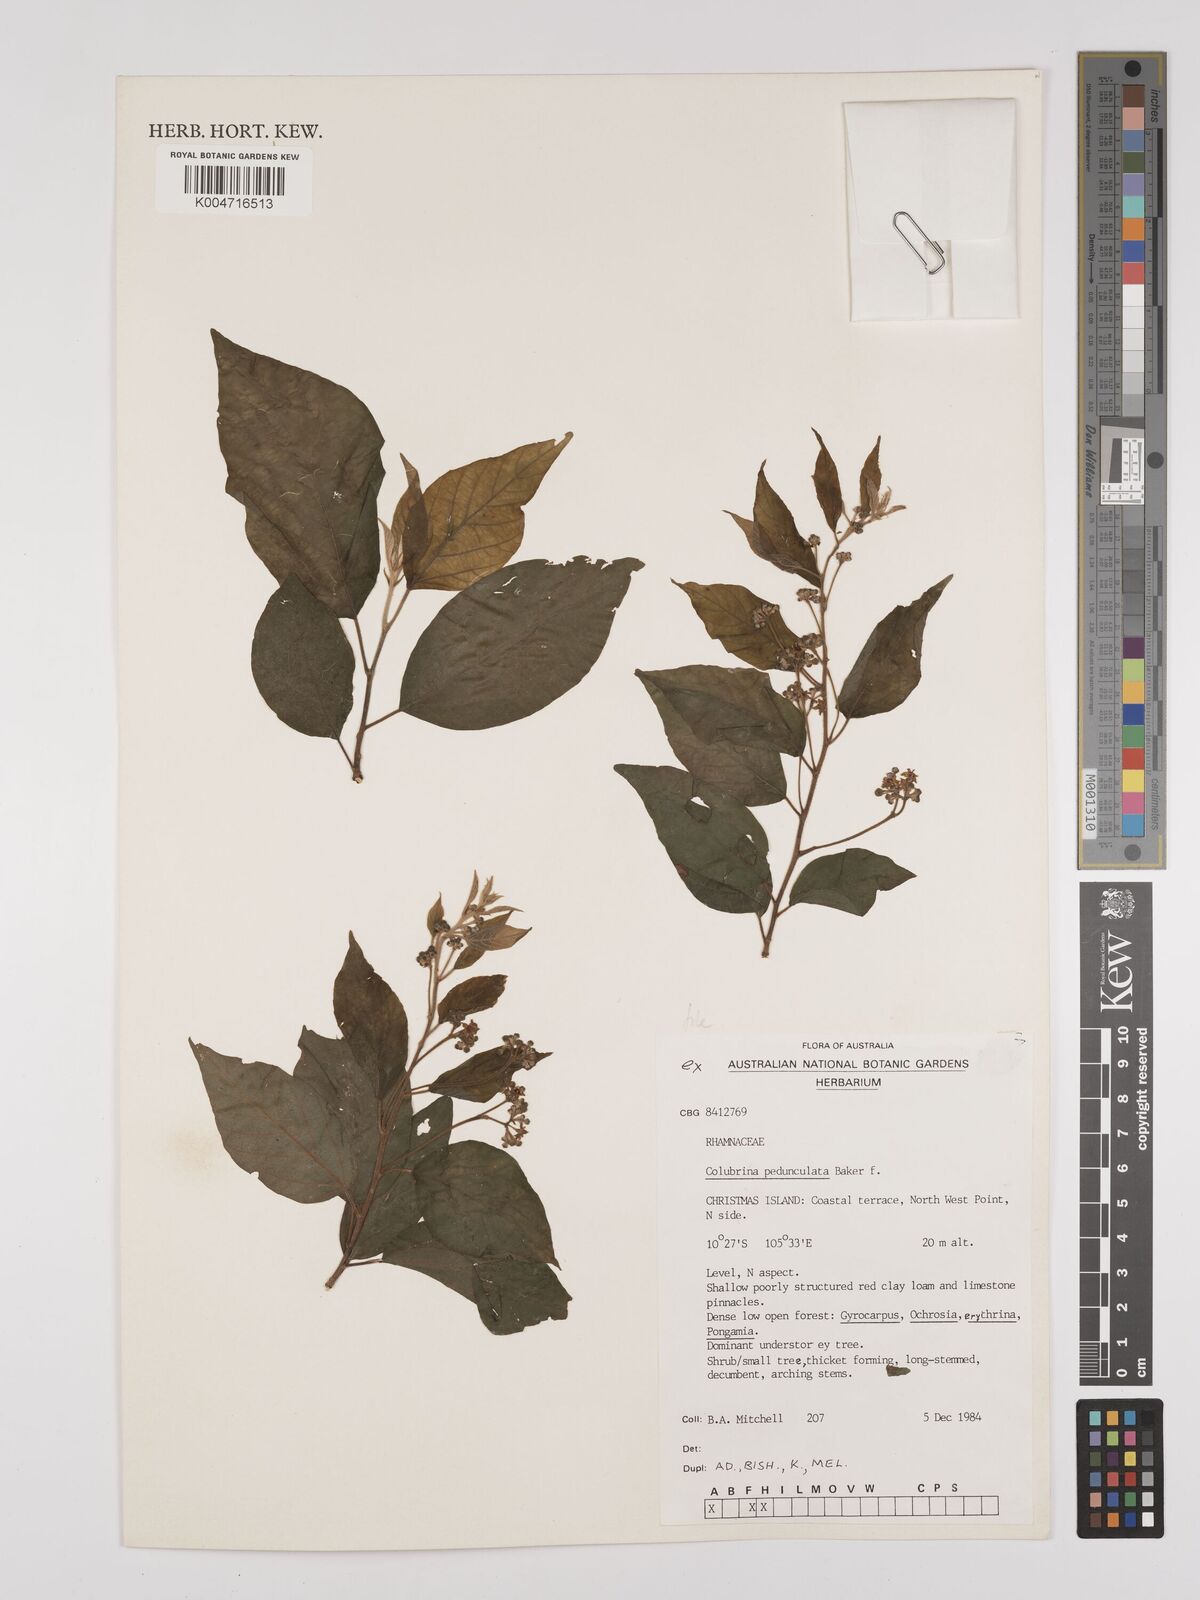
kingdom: Plantae
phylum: Tracheophyta
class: Magnoliopsida
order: Rosales
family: Rhamnaceae
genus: Colubrina
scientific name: Colubrina pedunculata
